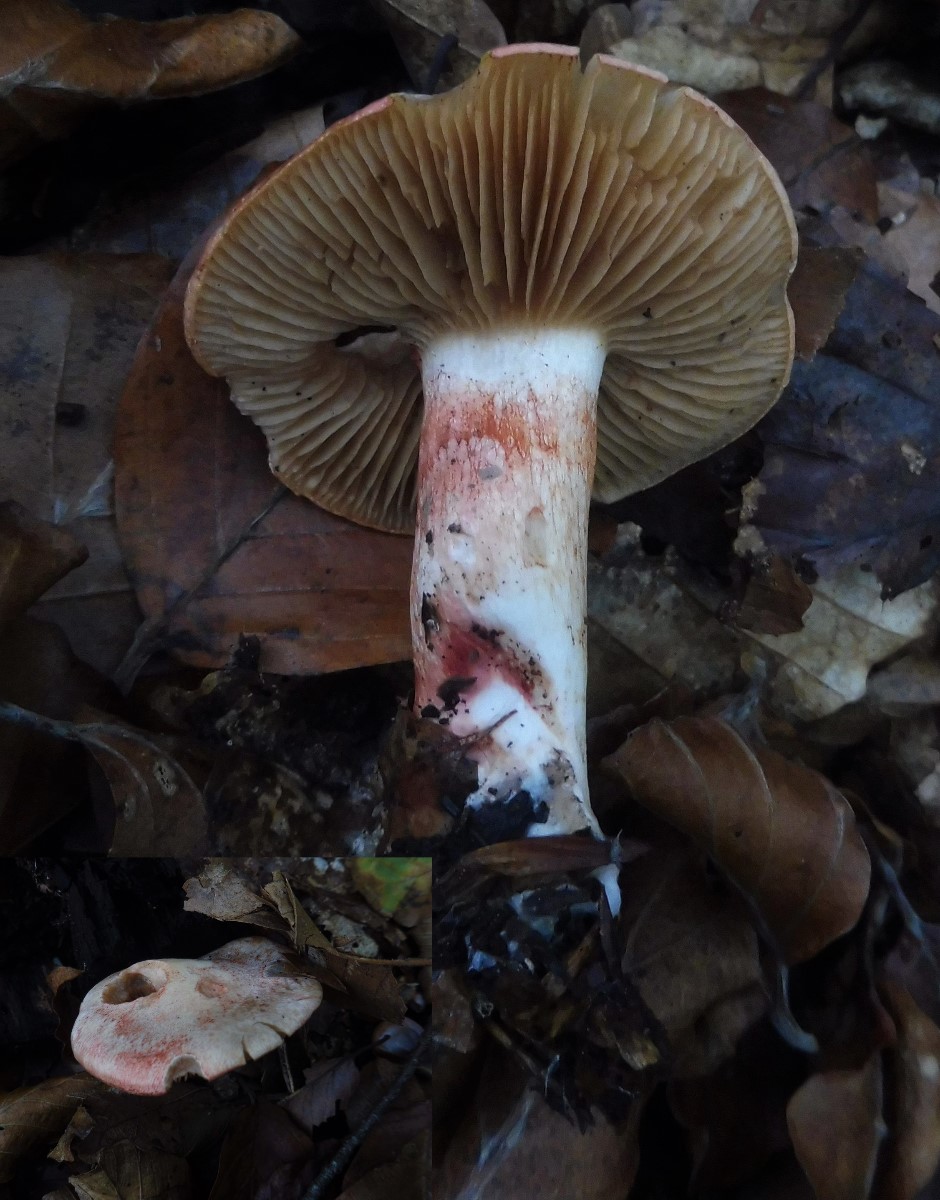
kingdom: Fungi
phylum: Basidiomycota
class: Agaricomycetes
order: Agaricales
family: Cortinariaceae
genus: Cortinarius
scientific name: Cortinarius bolaris
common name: cinnoberskællet slørhat
